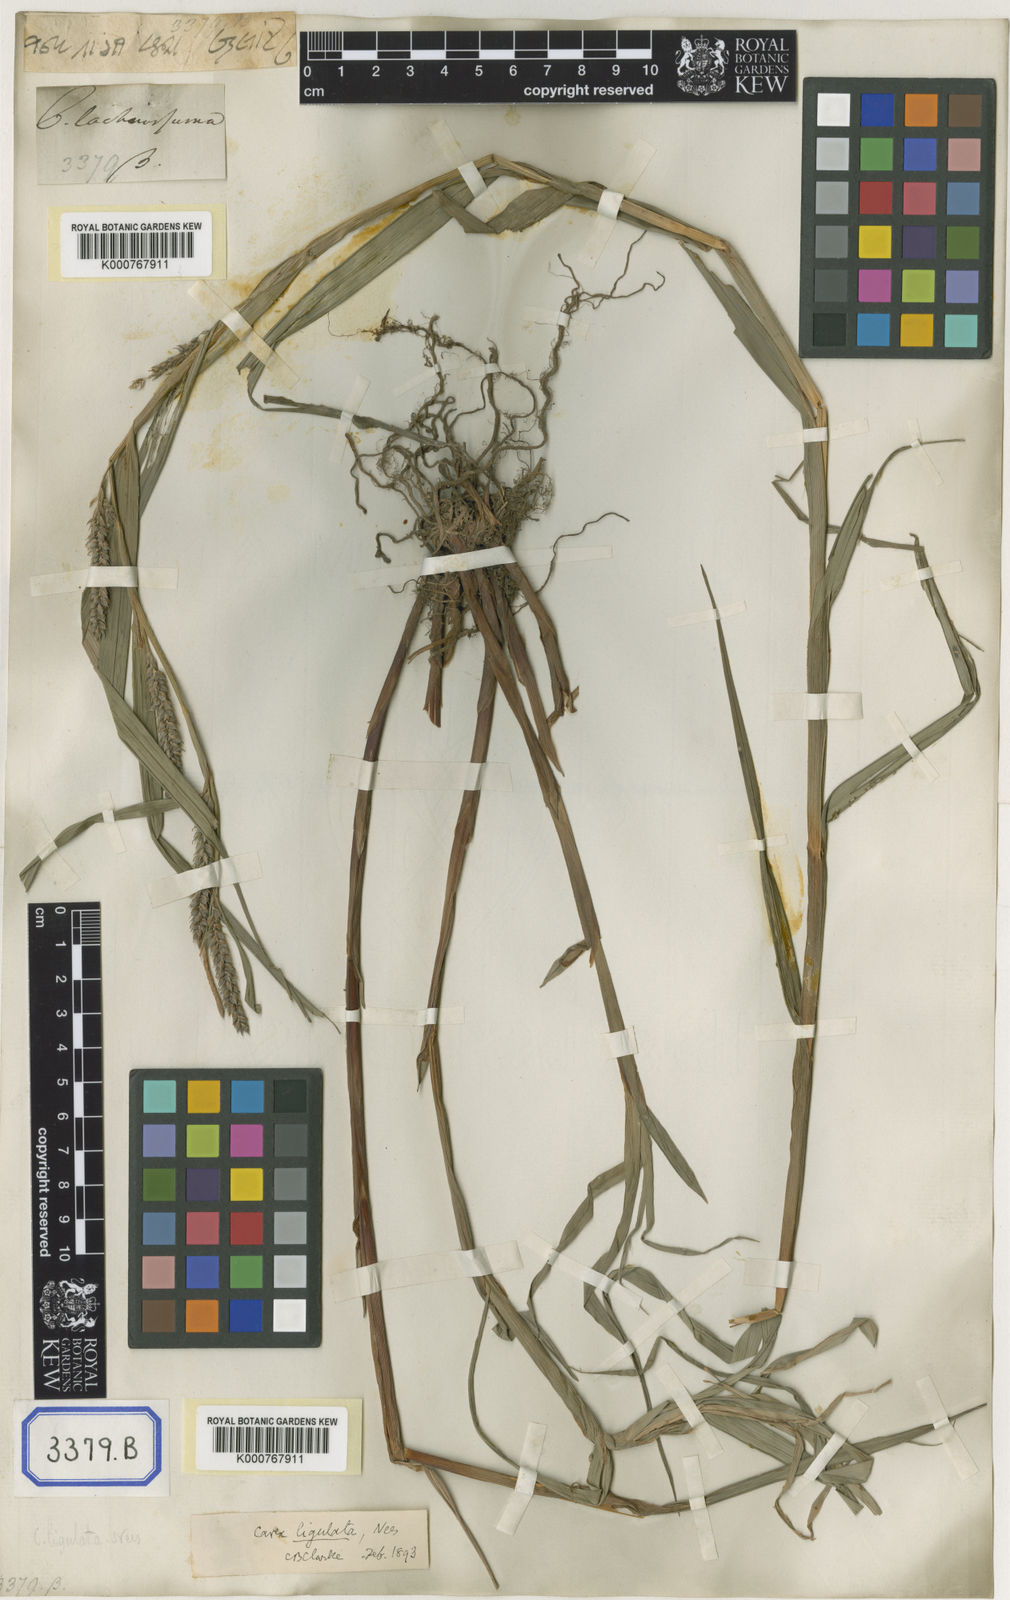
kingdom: Plantae
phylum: Tracheophyta
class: Liliopsida
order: Poales
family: Cyperaceae
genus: Carex
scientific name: Carex
